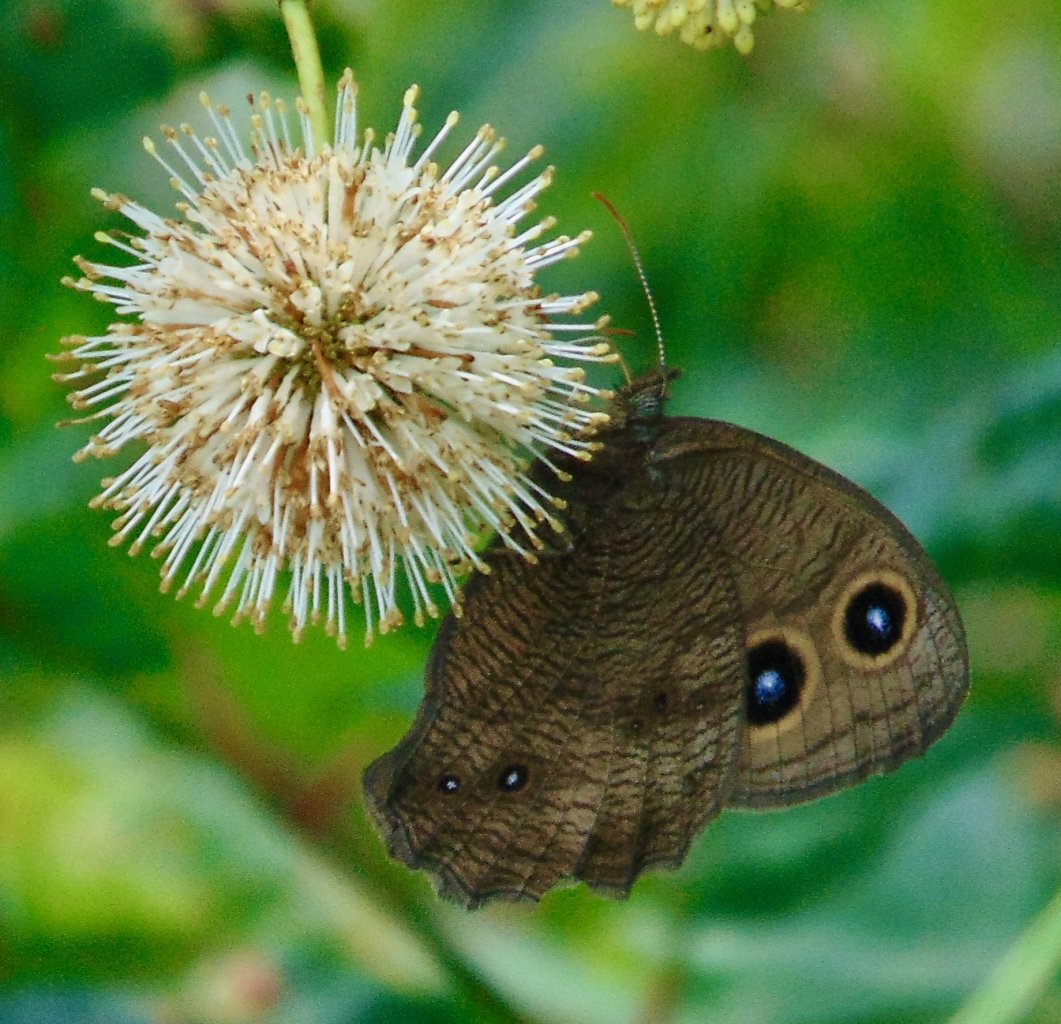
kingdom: Animalia
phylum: Arthropoda
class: Insecta
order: Lepidoptera
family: Nymphalidae
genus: Cercyonis
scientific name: Cercyonis pegala
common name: Common Wood-Nymph
